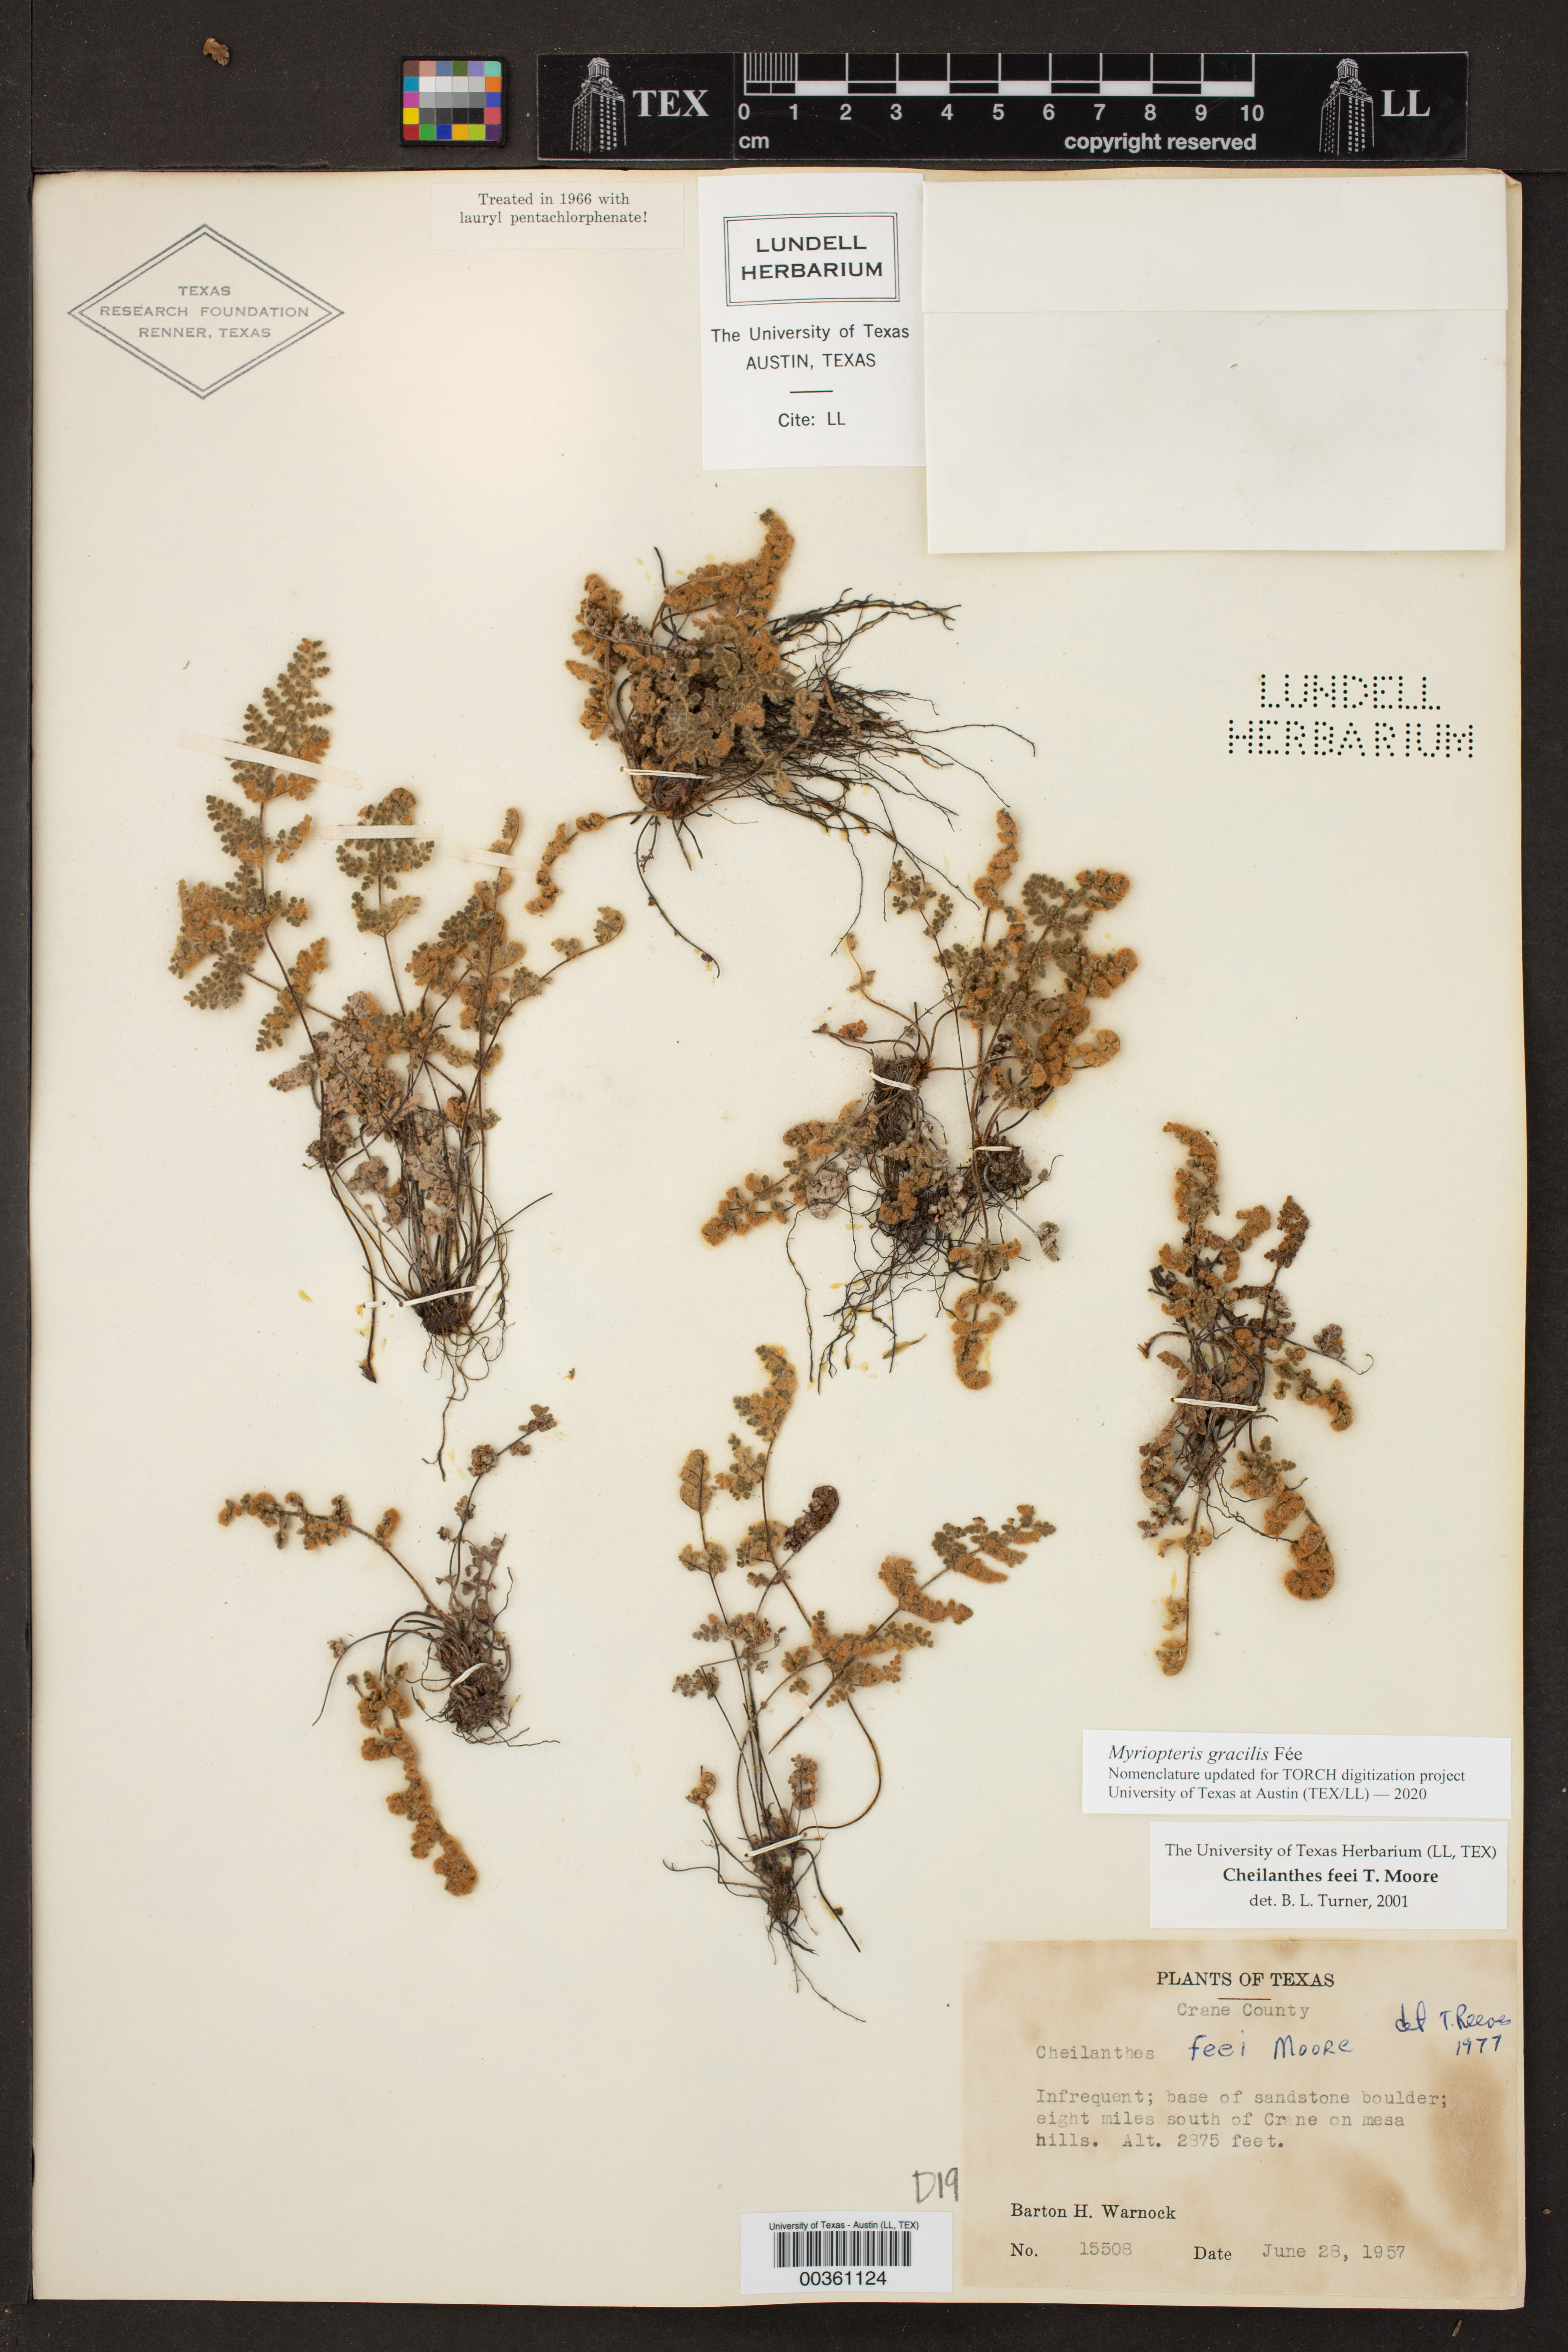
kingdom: Plantae
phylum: Tracheophyta
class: Polypodiopsida
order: Polypodiales
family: Pteridaceae
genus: Myriopteris
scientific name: Myriopteris gracilis
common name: Fee's lip fern
